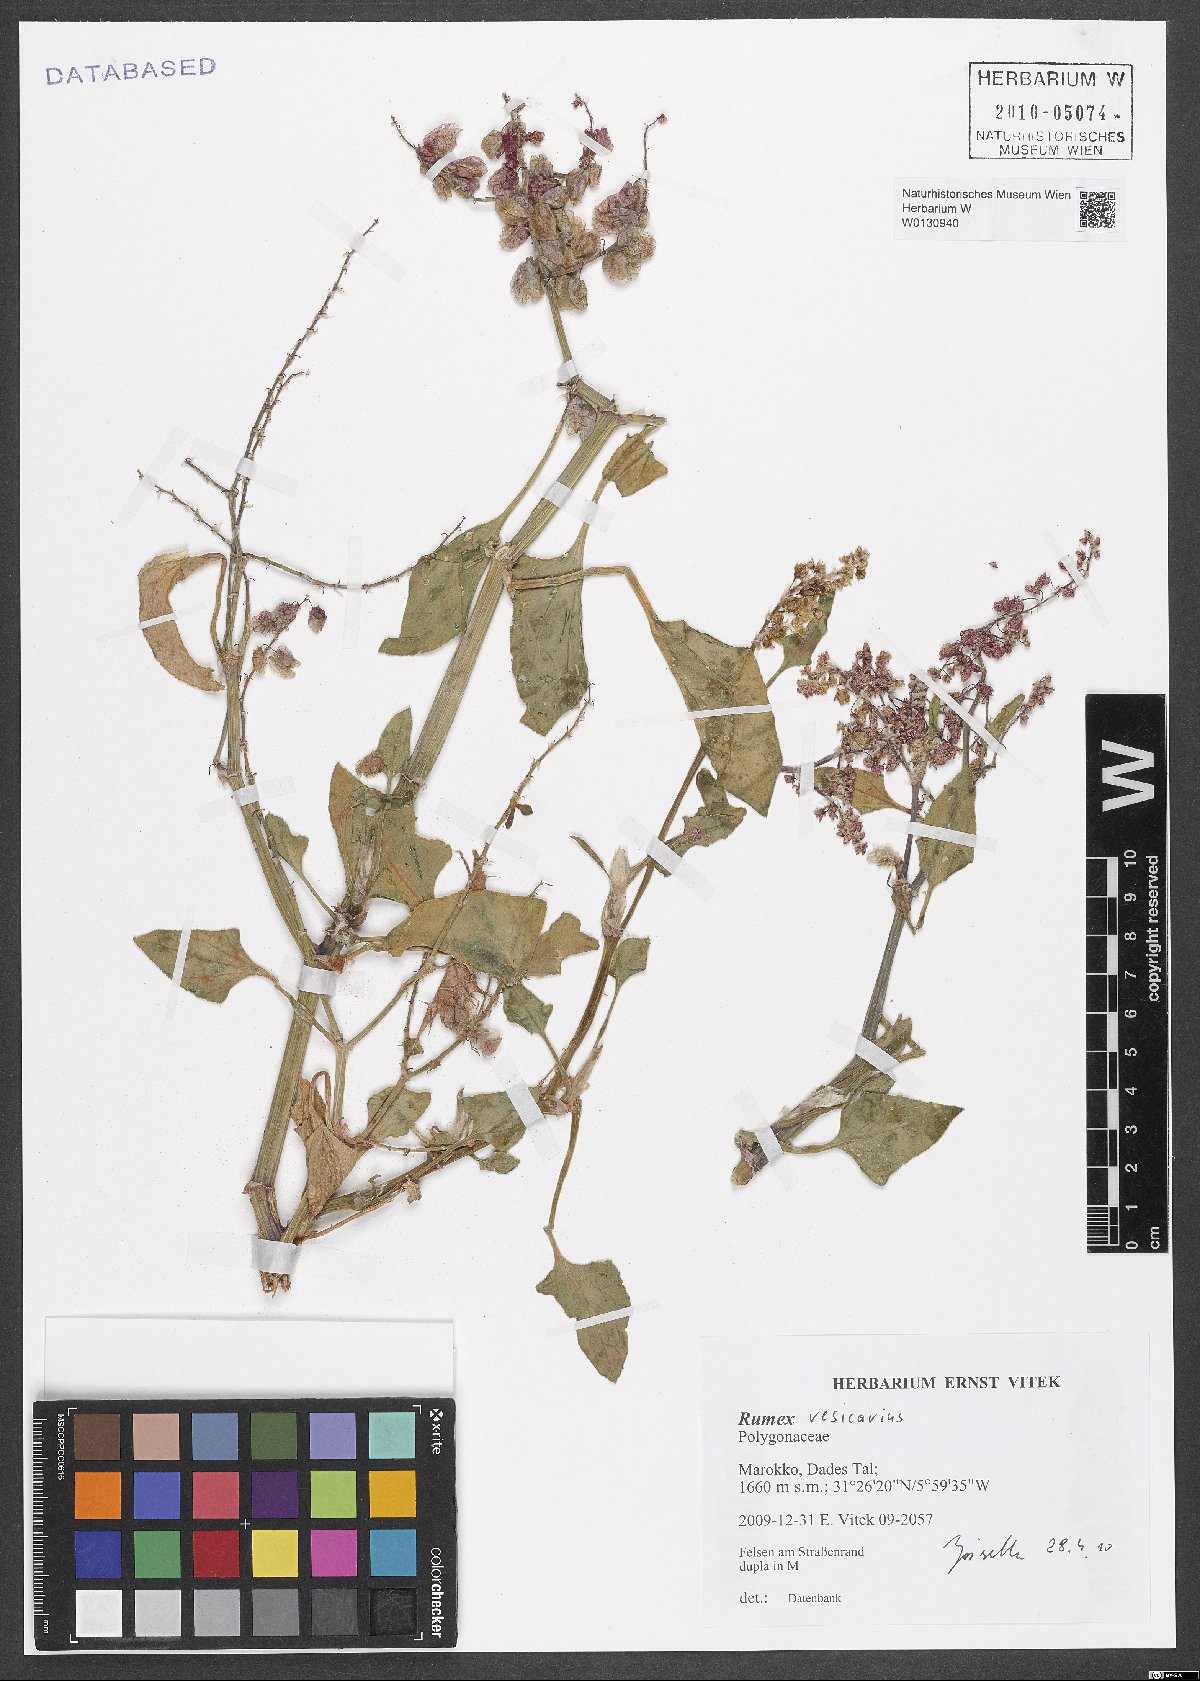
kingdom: Plantae
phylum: Tracheophyta
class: Magnoliopsida
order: Caryophyllales
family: Polygonaceae
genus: Rumex
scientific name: Rumex vesicarius
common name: Bladder dock
